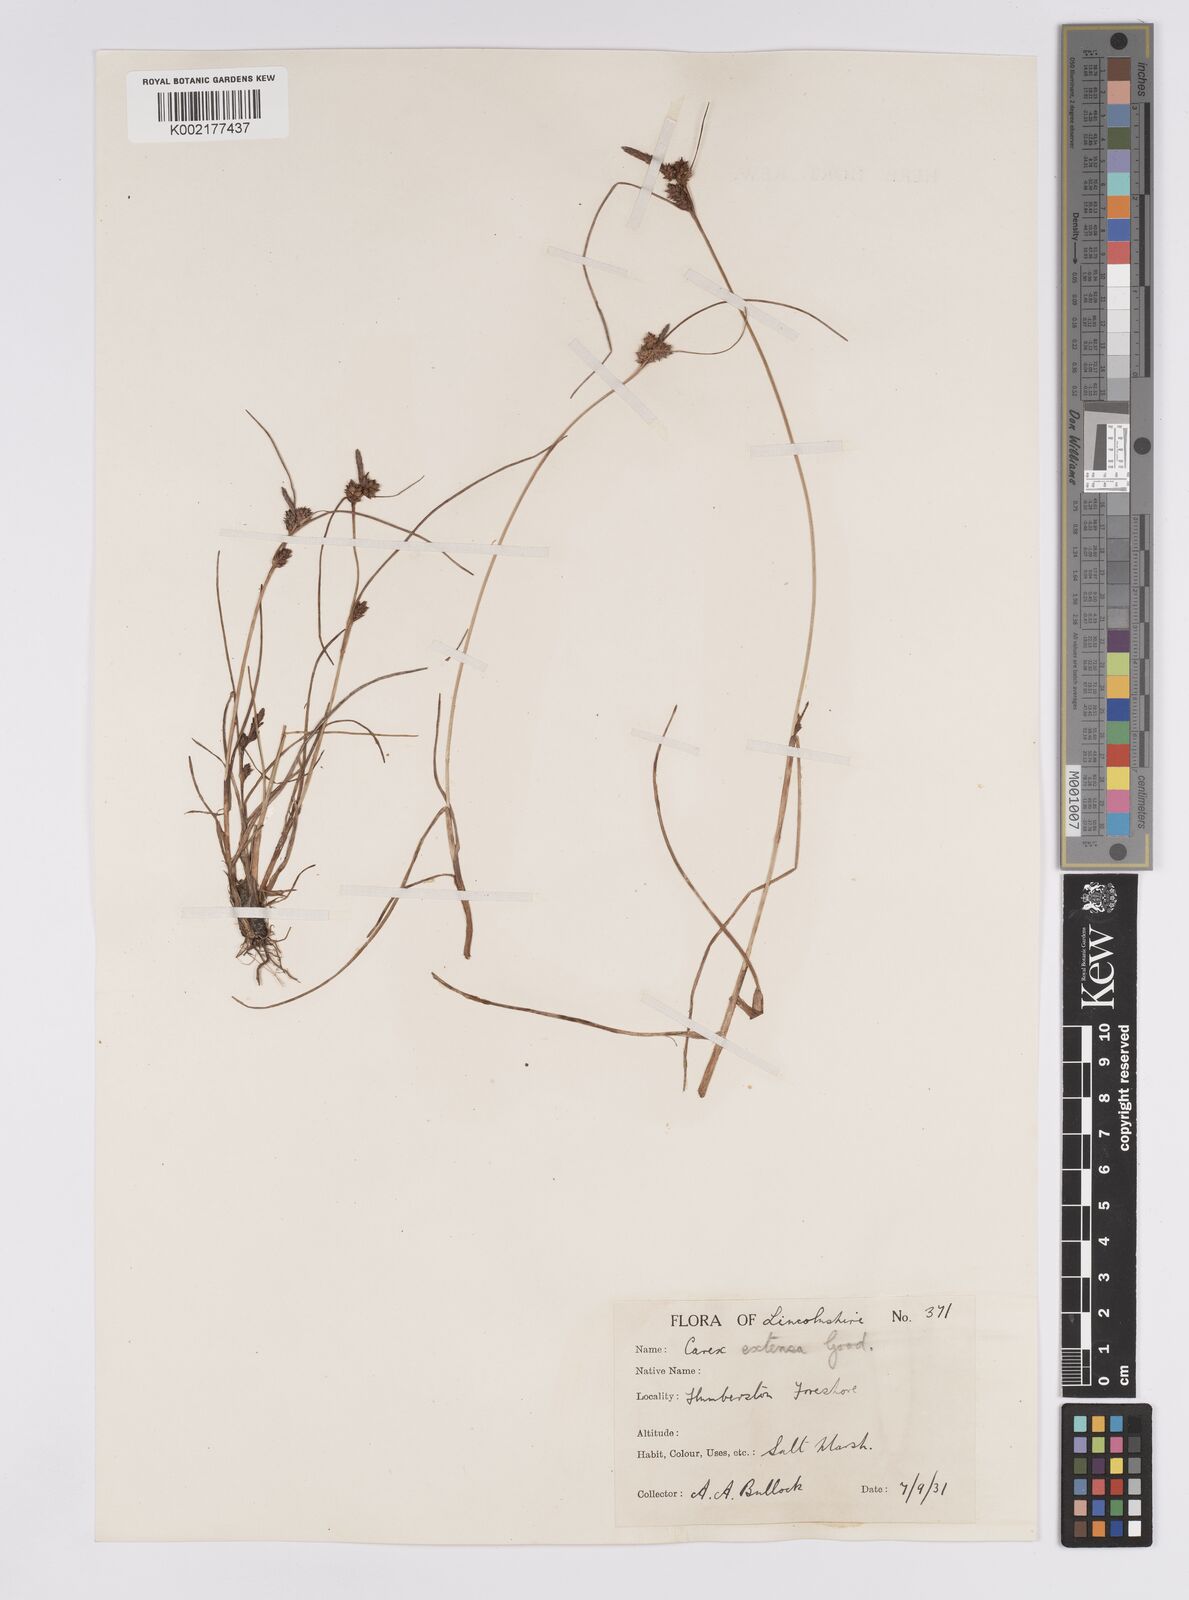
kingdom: Plantae
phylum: Tracheophyta
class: Liliopsida
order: Poales
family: Cyperaceae
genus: Carex
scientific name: Carex extensa
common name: Long-bracted sedge
